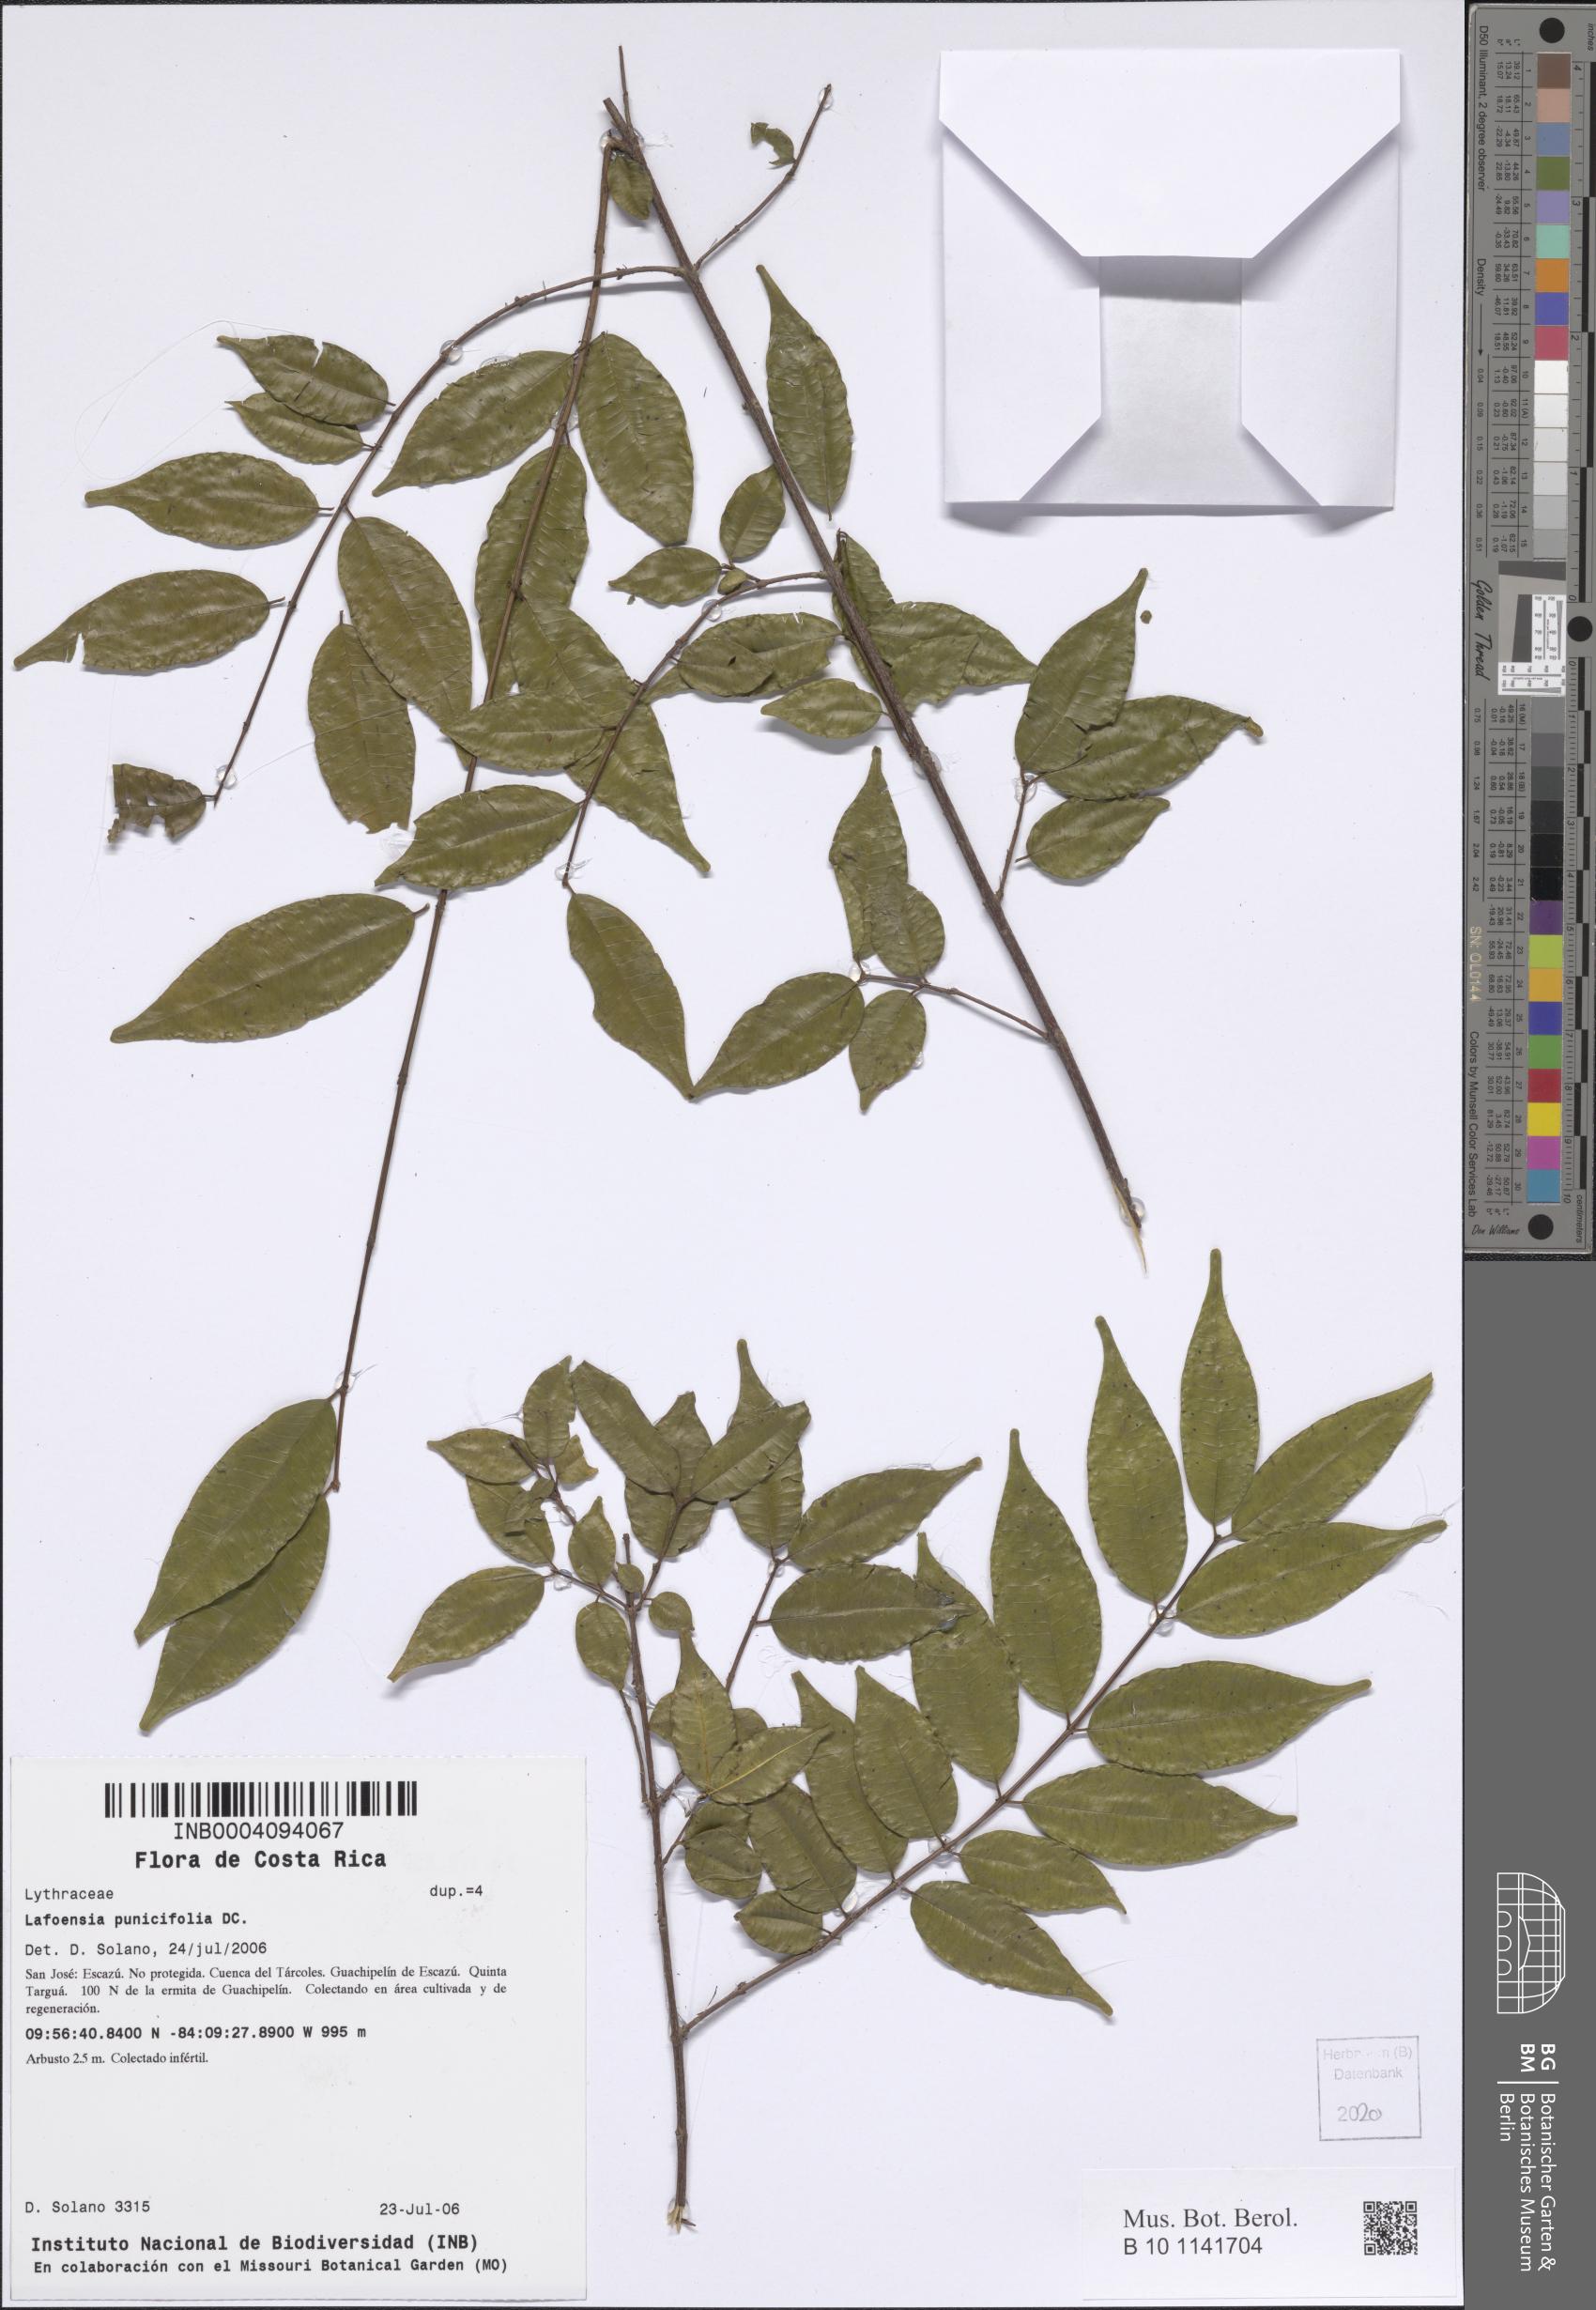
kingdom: Plantae
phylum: Tracheophyta
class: Magnoliopsida
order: Myrtales
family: Lythraceae
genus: Lafoensia
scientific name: Lafoensia punicifolia
